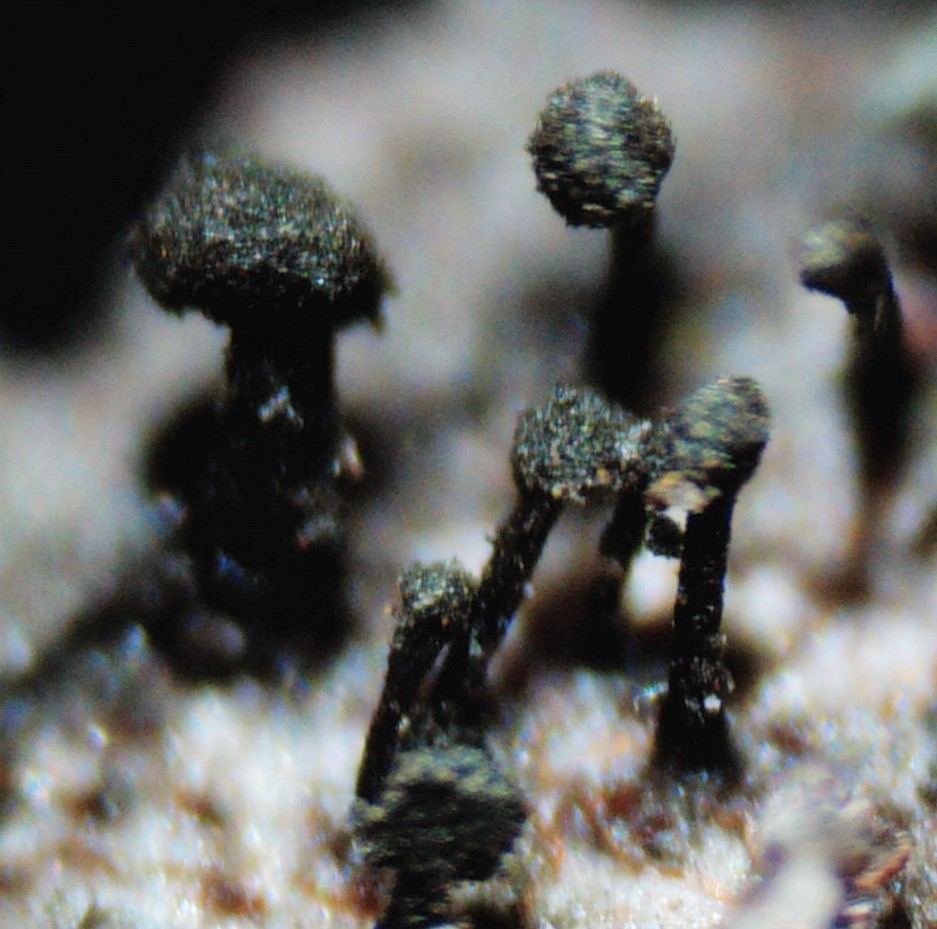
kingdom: Fungi
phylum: Ascomycota
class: Dothideomycetes
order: Pleosporales
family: Melanommataceae
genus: Seifertia
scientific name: Seifertia azaleae
